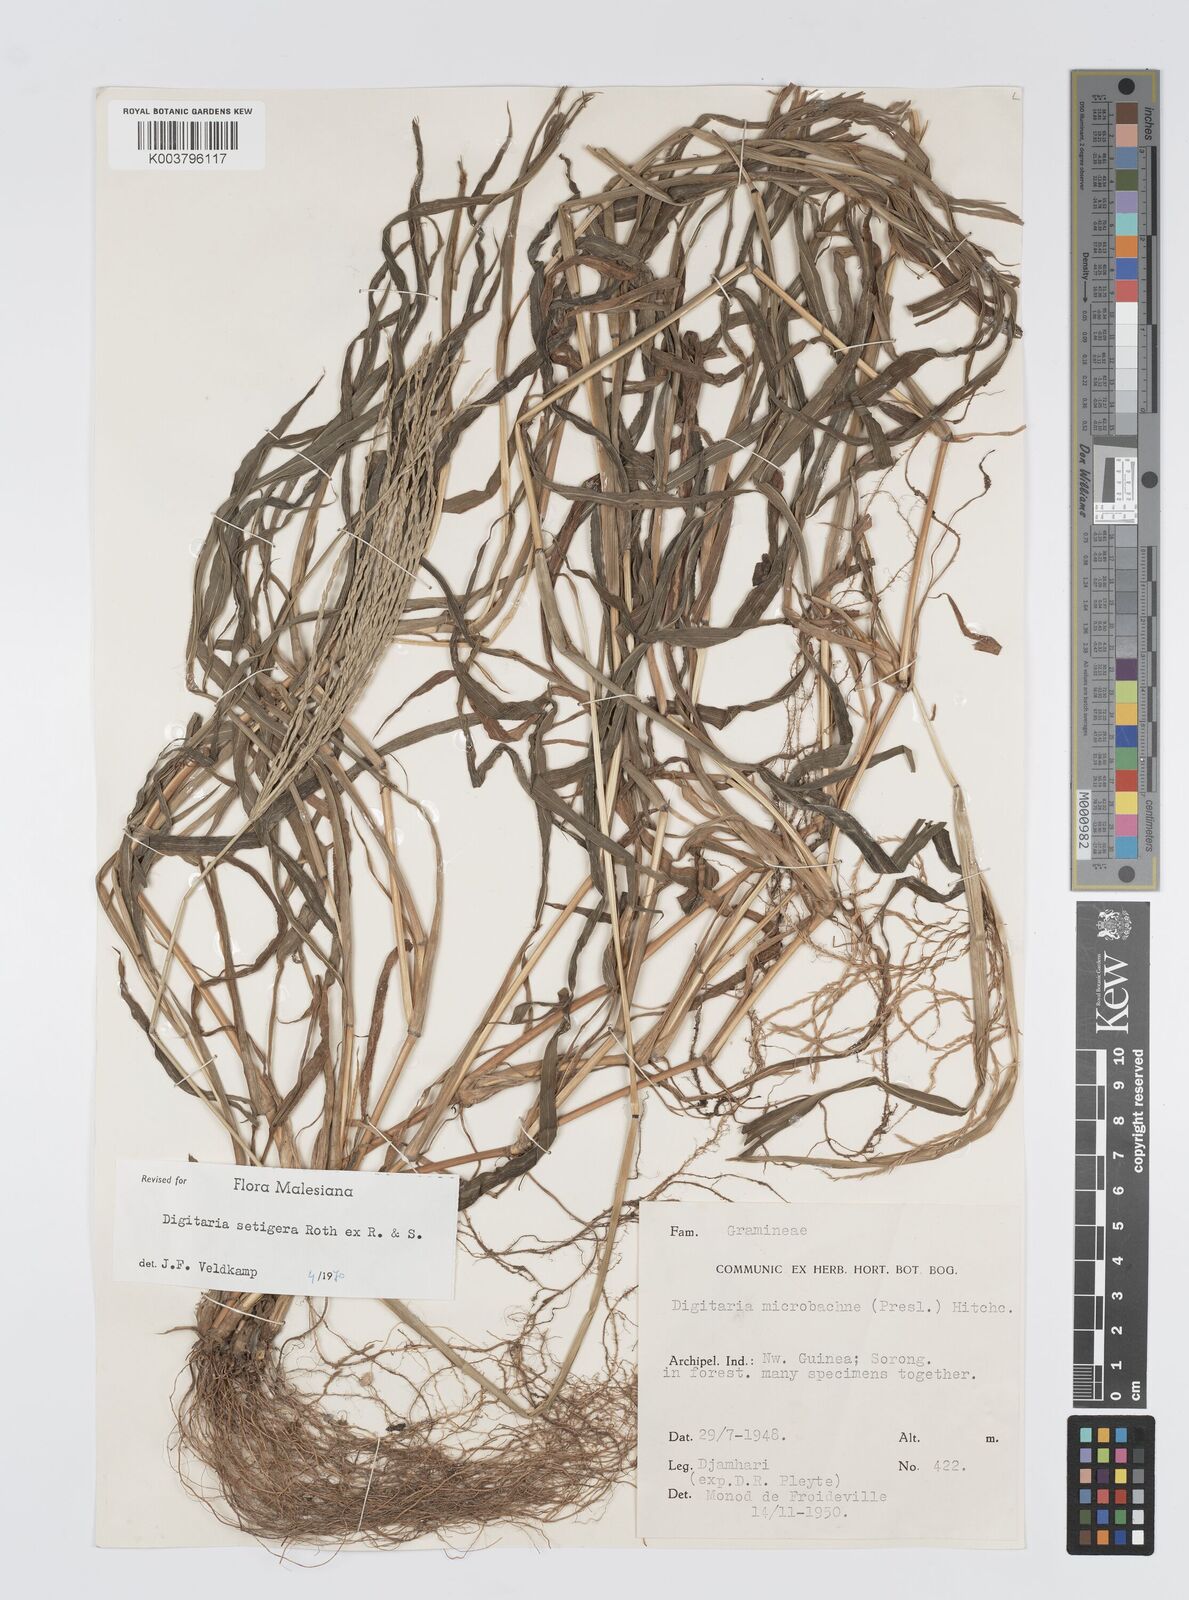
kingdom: Plantae
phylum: Tracheophyta
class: Liliopsida
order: Poales
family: Poaceae
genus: Digitaria
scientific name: Digitaria setigera
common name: East indian crabgrass
